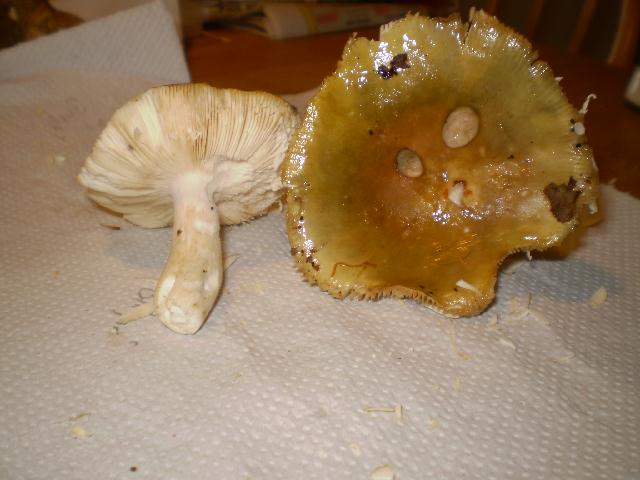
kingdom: Fungi
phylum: Basidiomycota
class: Agaricomycetes
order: Russulales
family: Russulaceae
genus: Russula
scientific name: Russula grisea
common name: grålig skørhat
